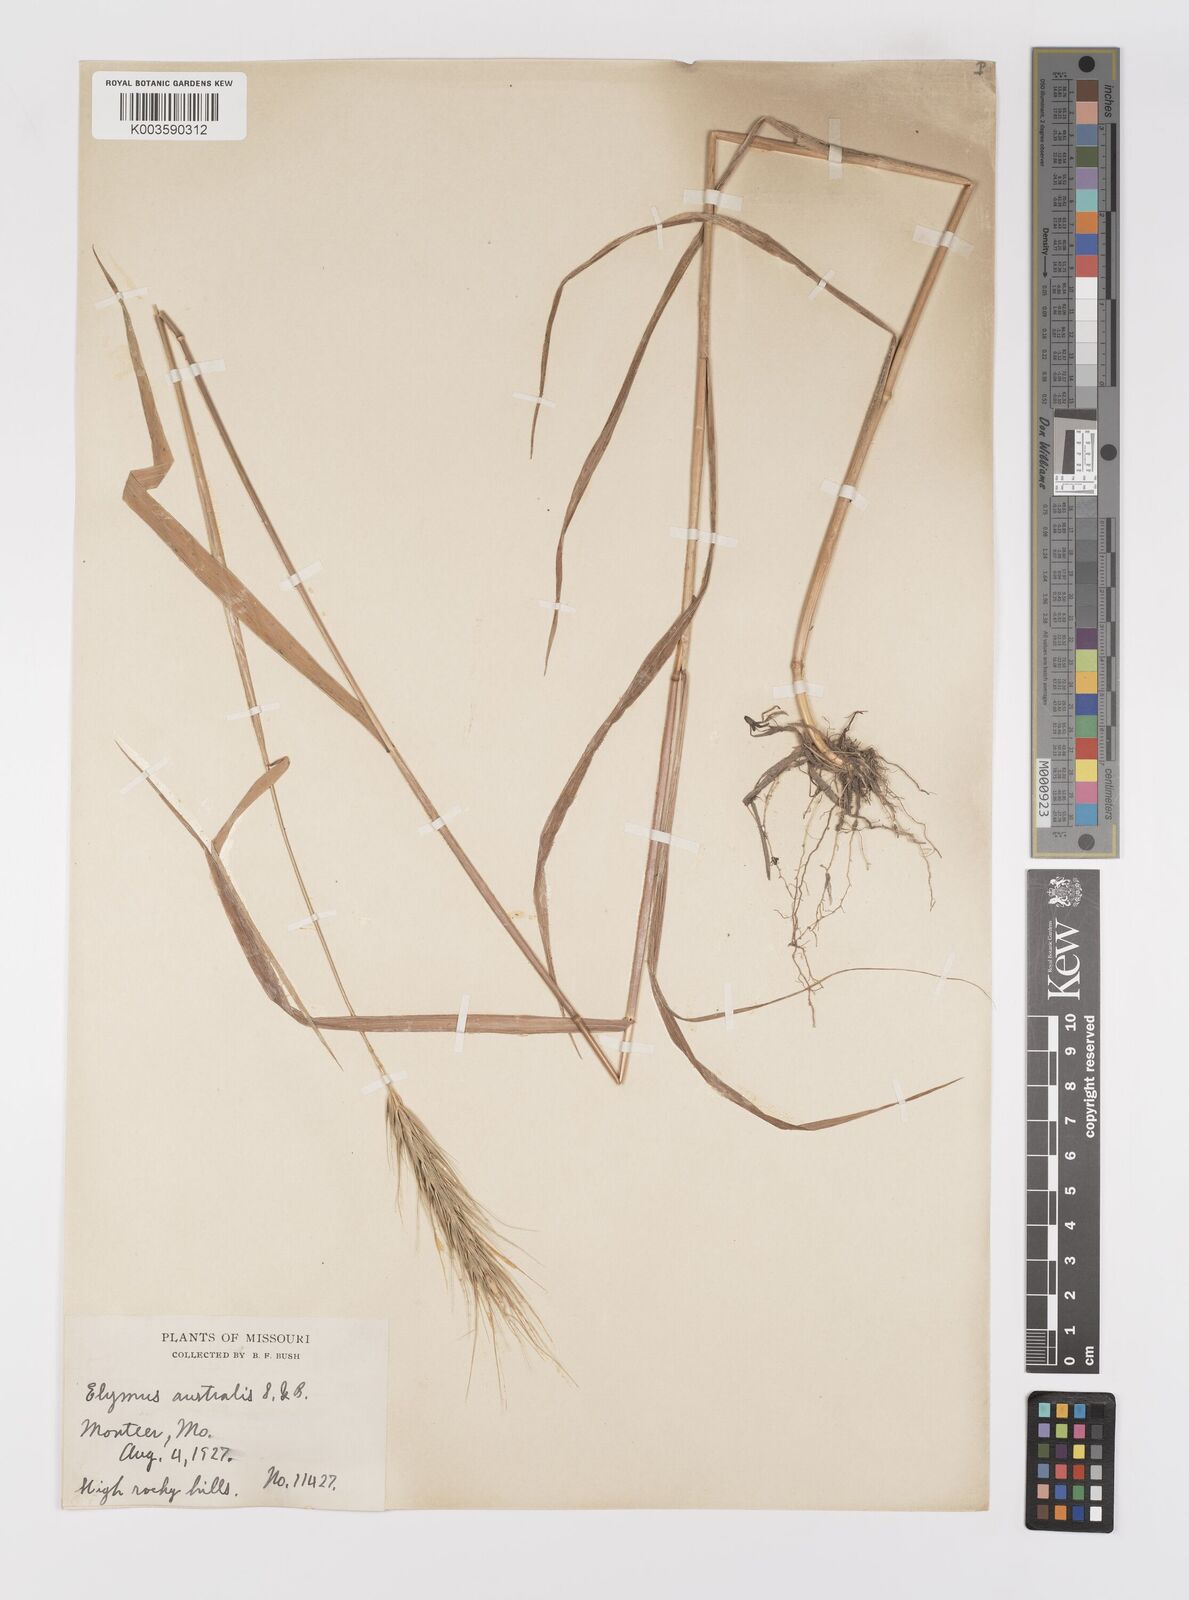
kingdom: Plantae
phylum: Tracheophyta
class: Liliopsida
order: Poales
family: Poaceae
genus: Elymus
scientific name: Elymus
